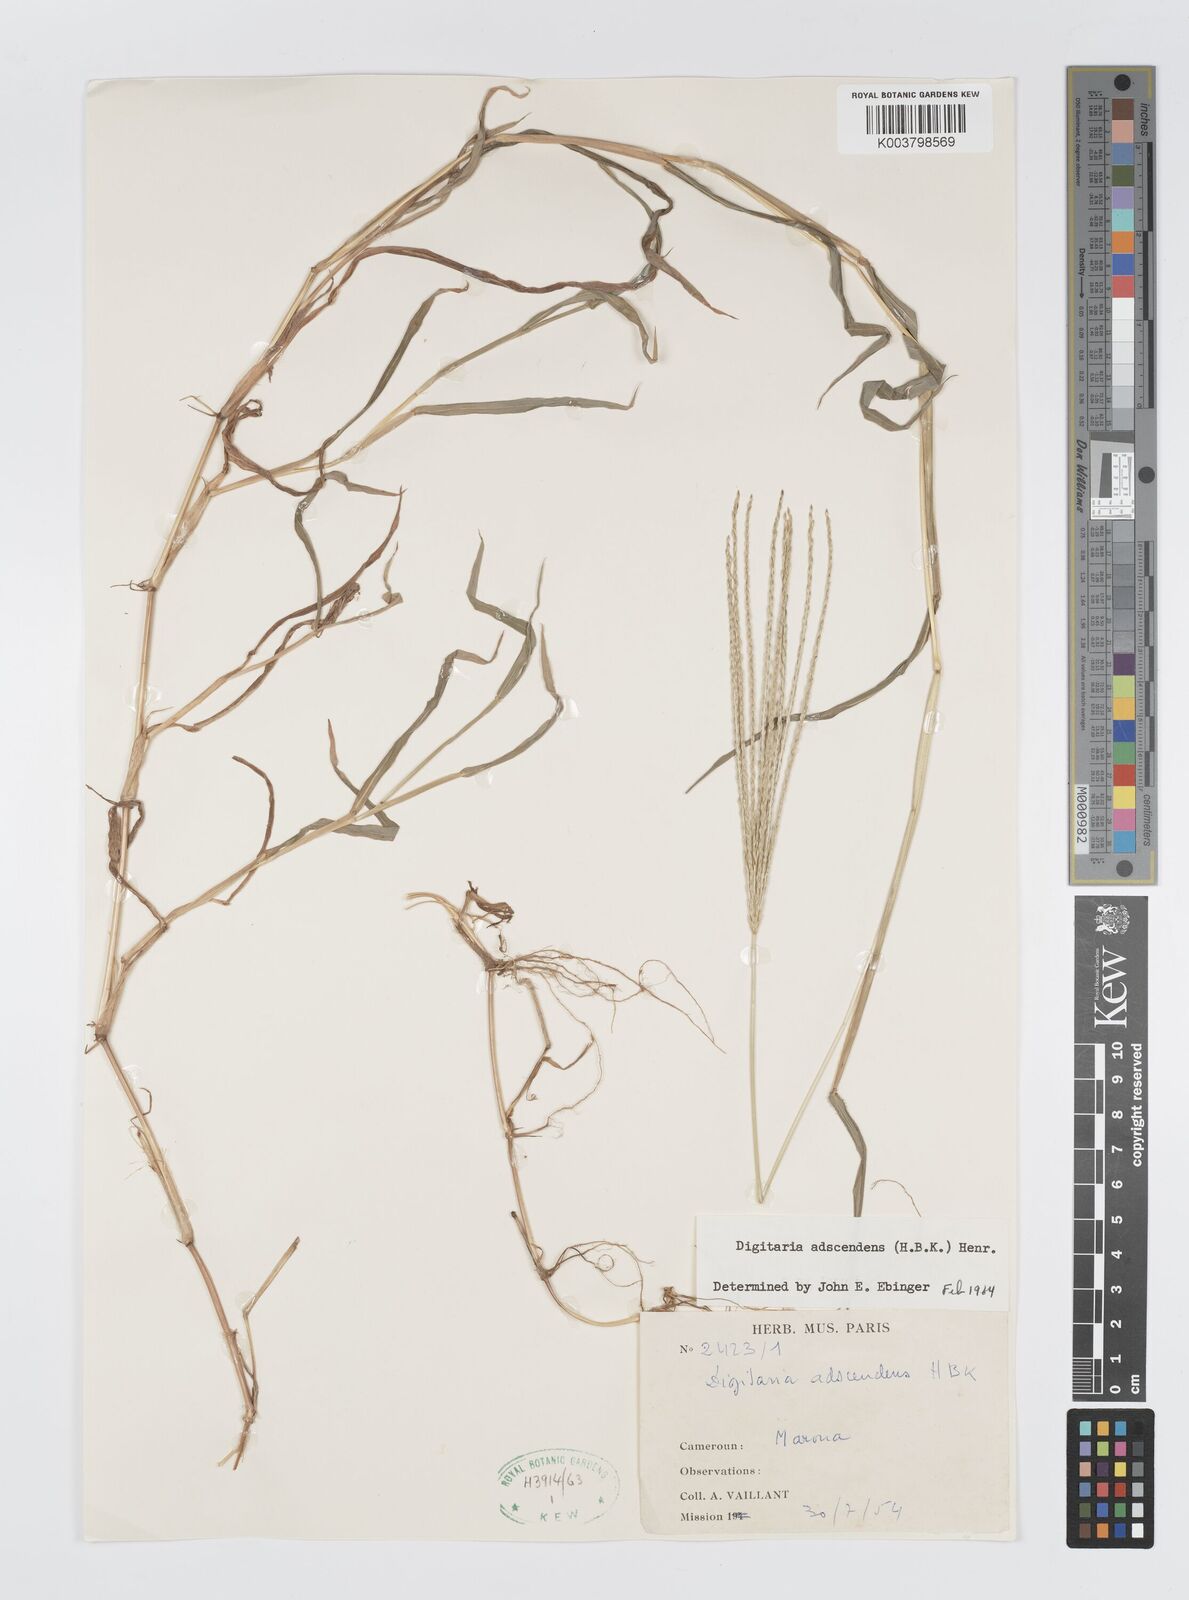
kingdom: Plantae
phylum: Tracheophyta
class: Liliopsida
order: Poales
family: Poaceae
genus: Digitaria
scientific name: Digitaria nuda
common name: Naked crabgrass
